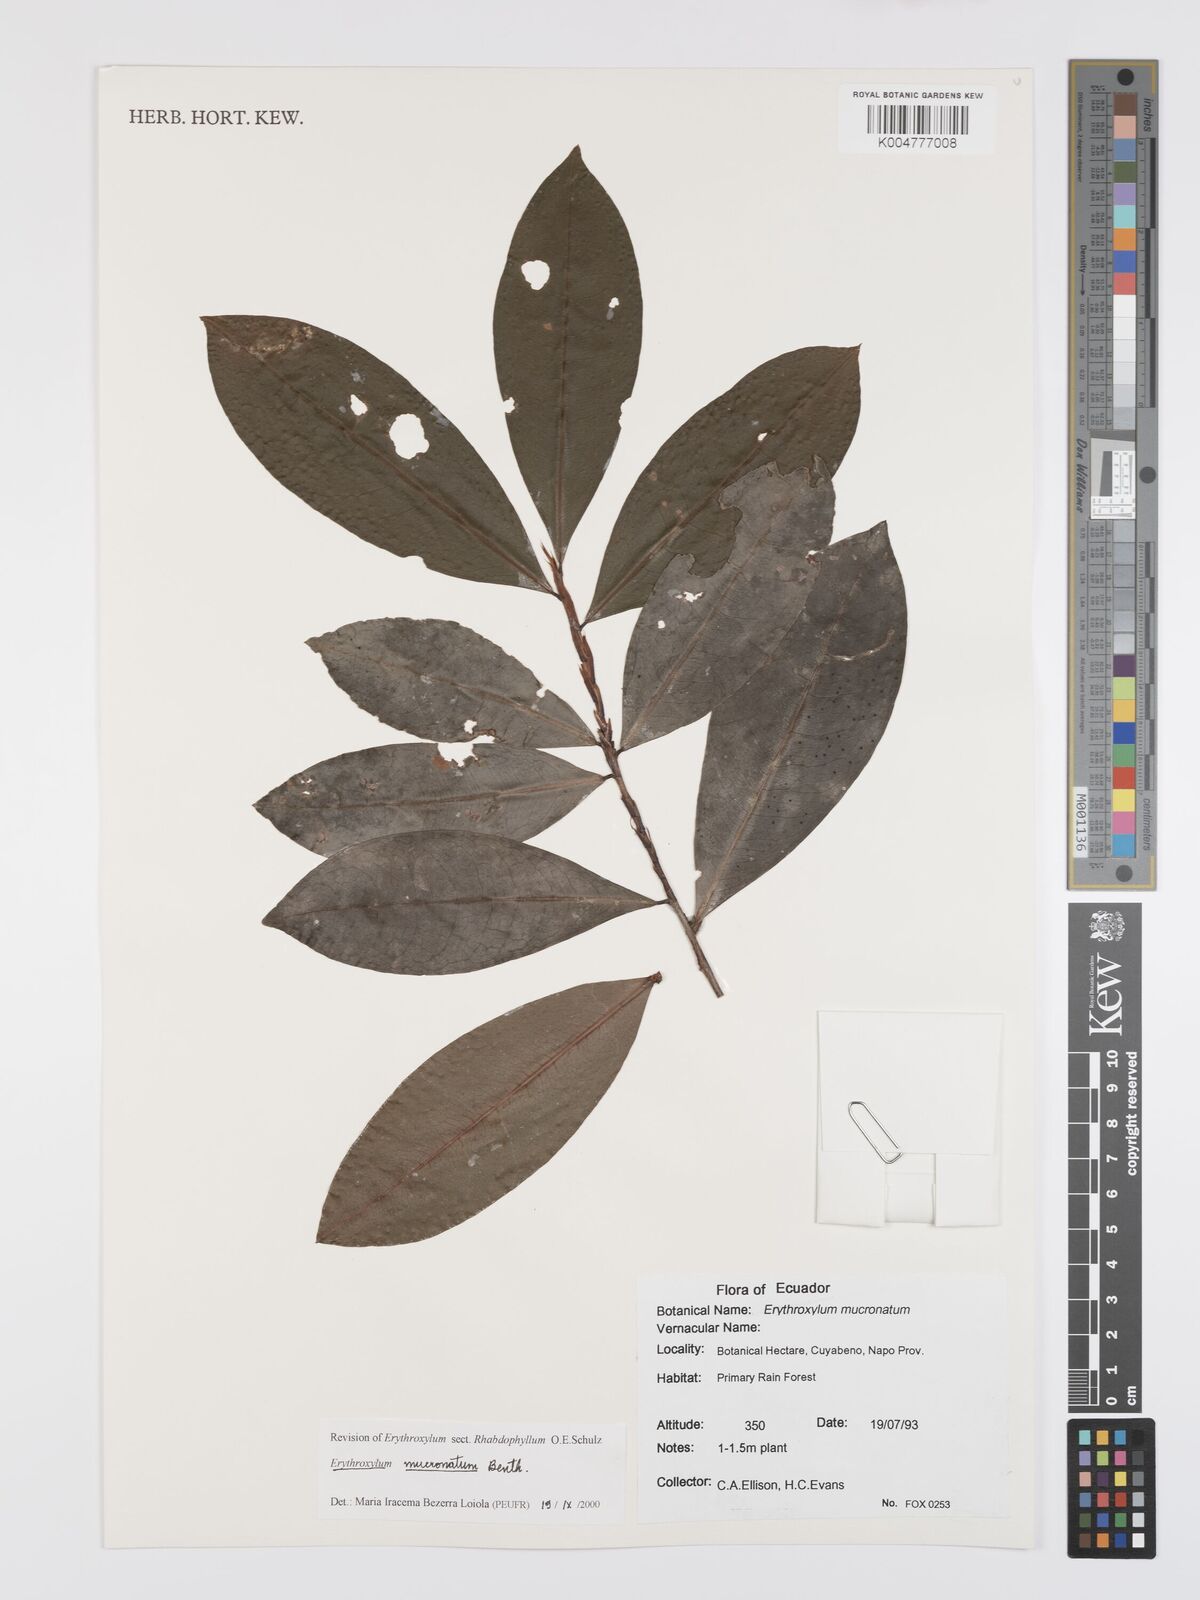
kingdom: Plantae
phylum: Tracheophyta
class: Magnoliopsida
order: Malpighiales
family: Erythroxylaceae
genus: Erythroxylum
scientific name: Erythroxylum mucronatum
